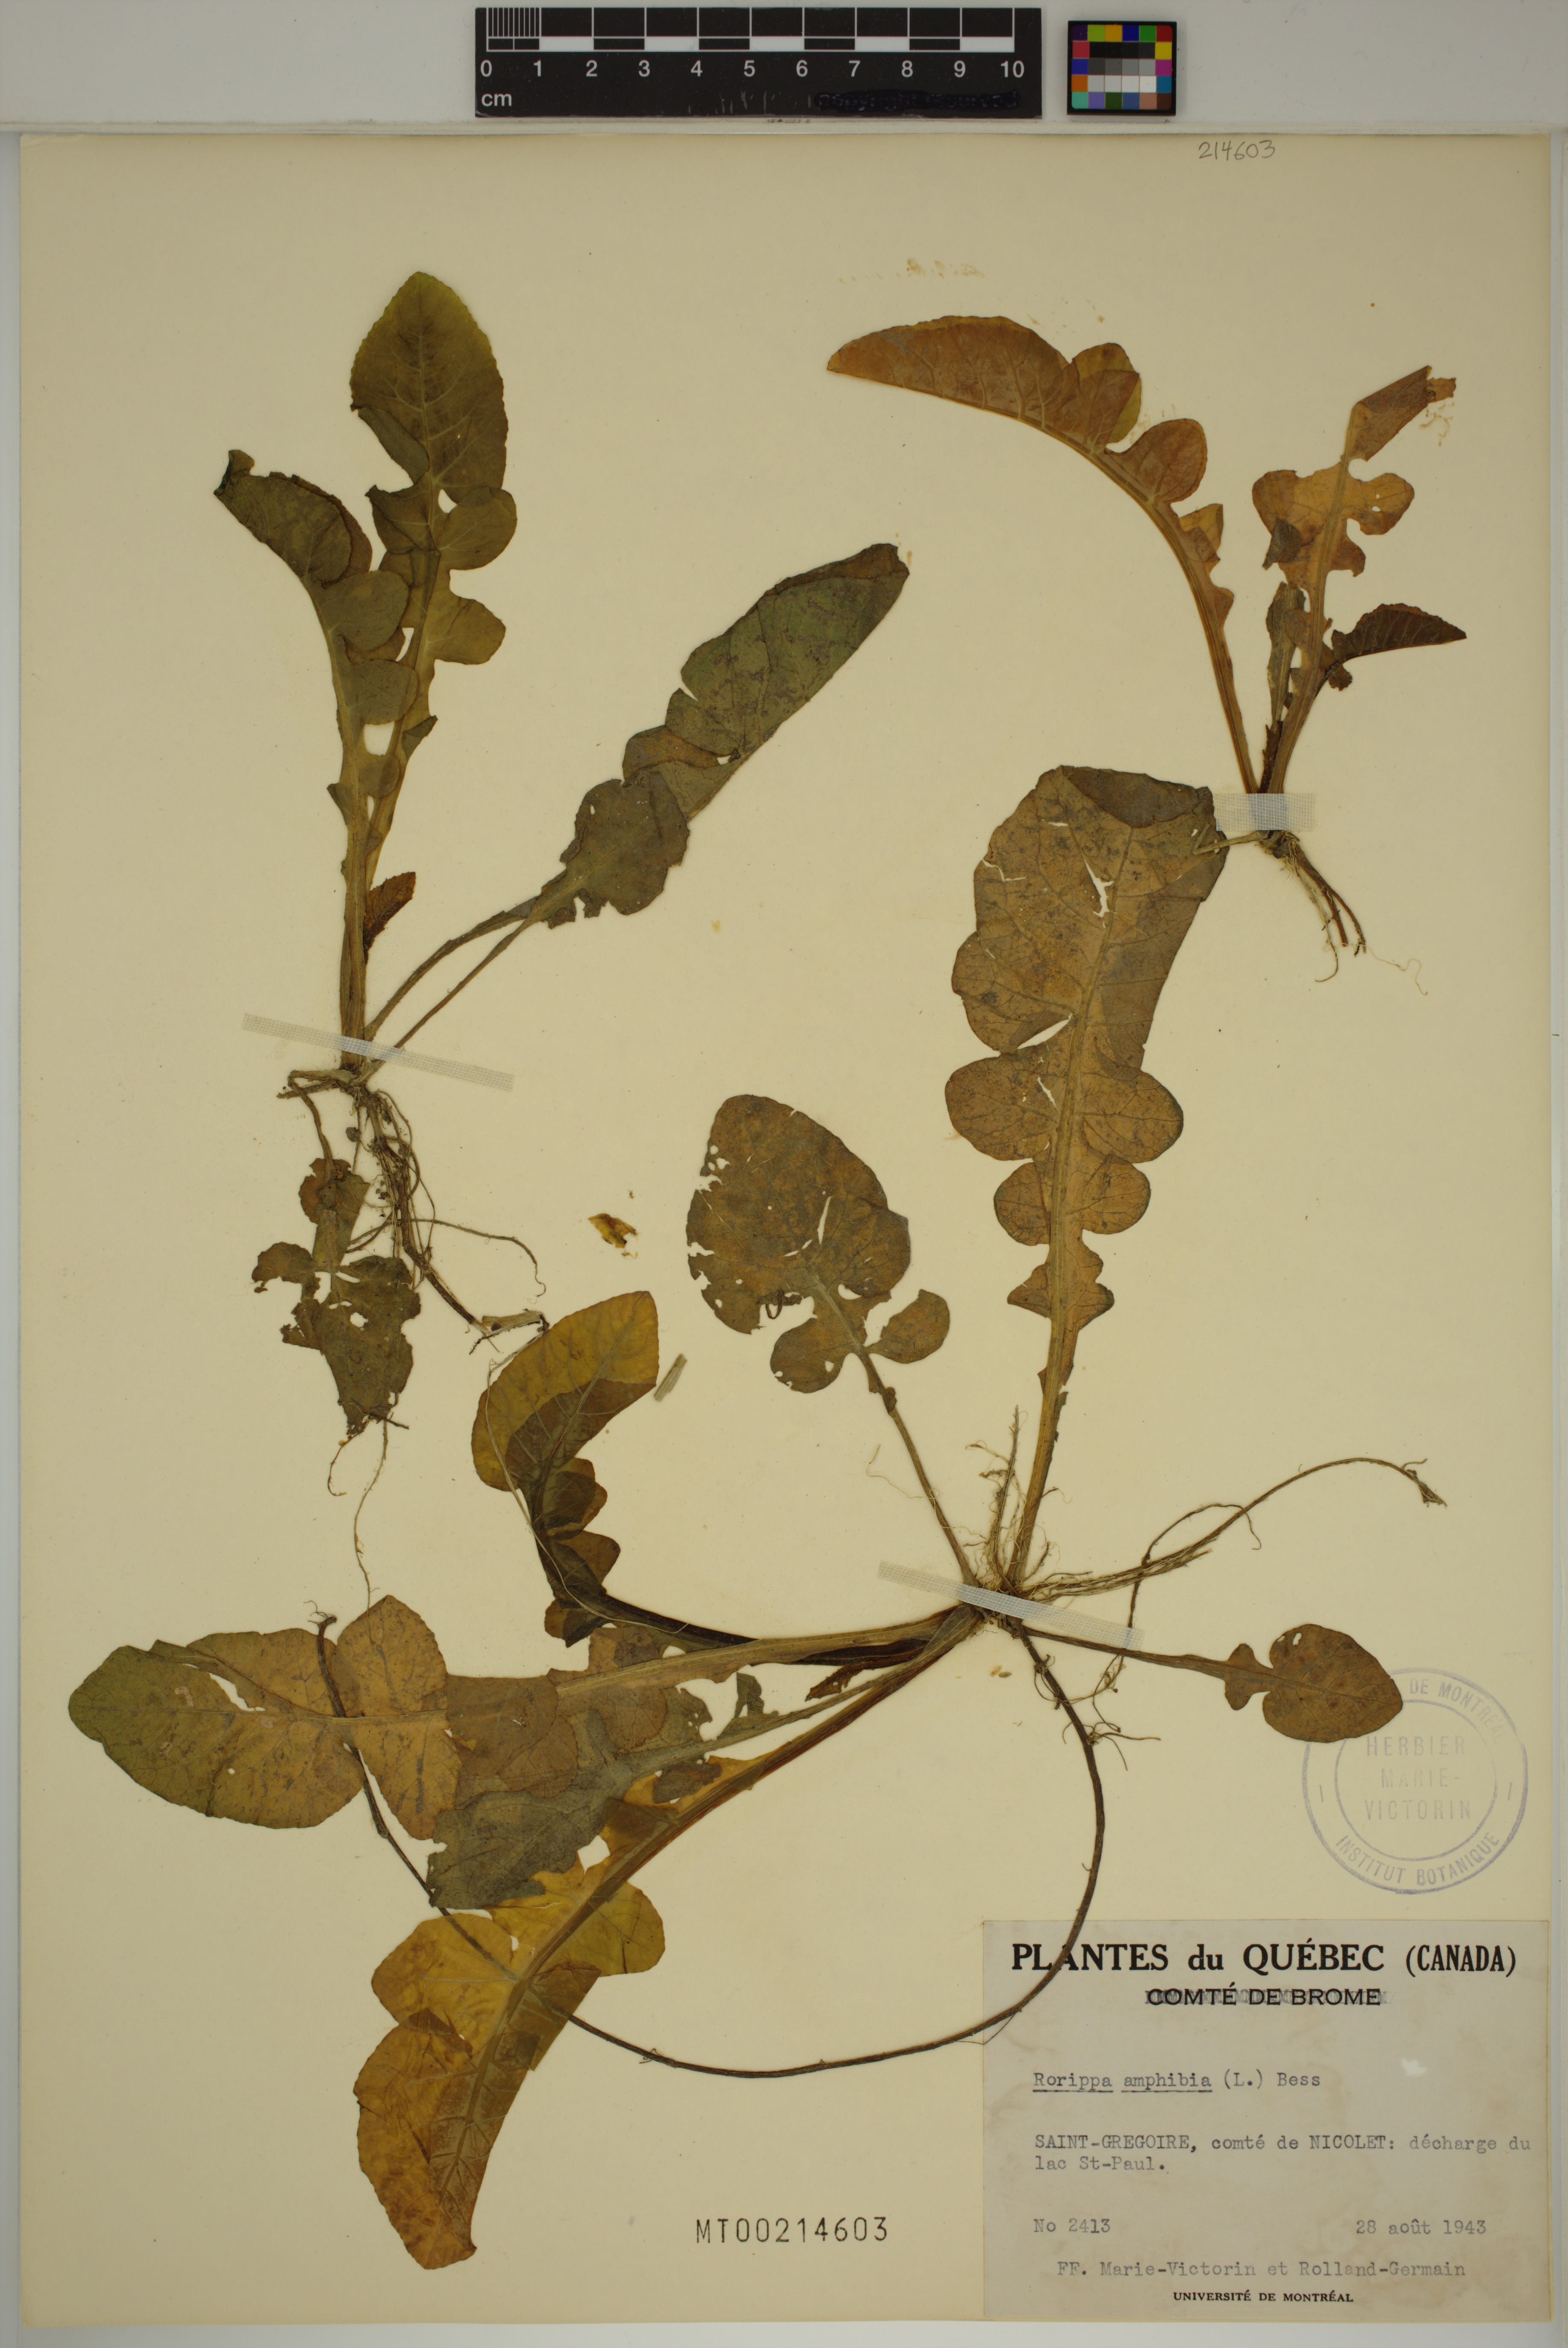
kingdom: Plantae
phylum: Tracheophyta
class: Magnoliopsida
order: Brassicales
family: Brassicaceae
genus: Rorippa
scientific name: Rorippa amphibia
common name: Great yellow-cress
